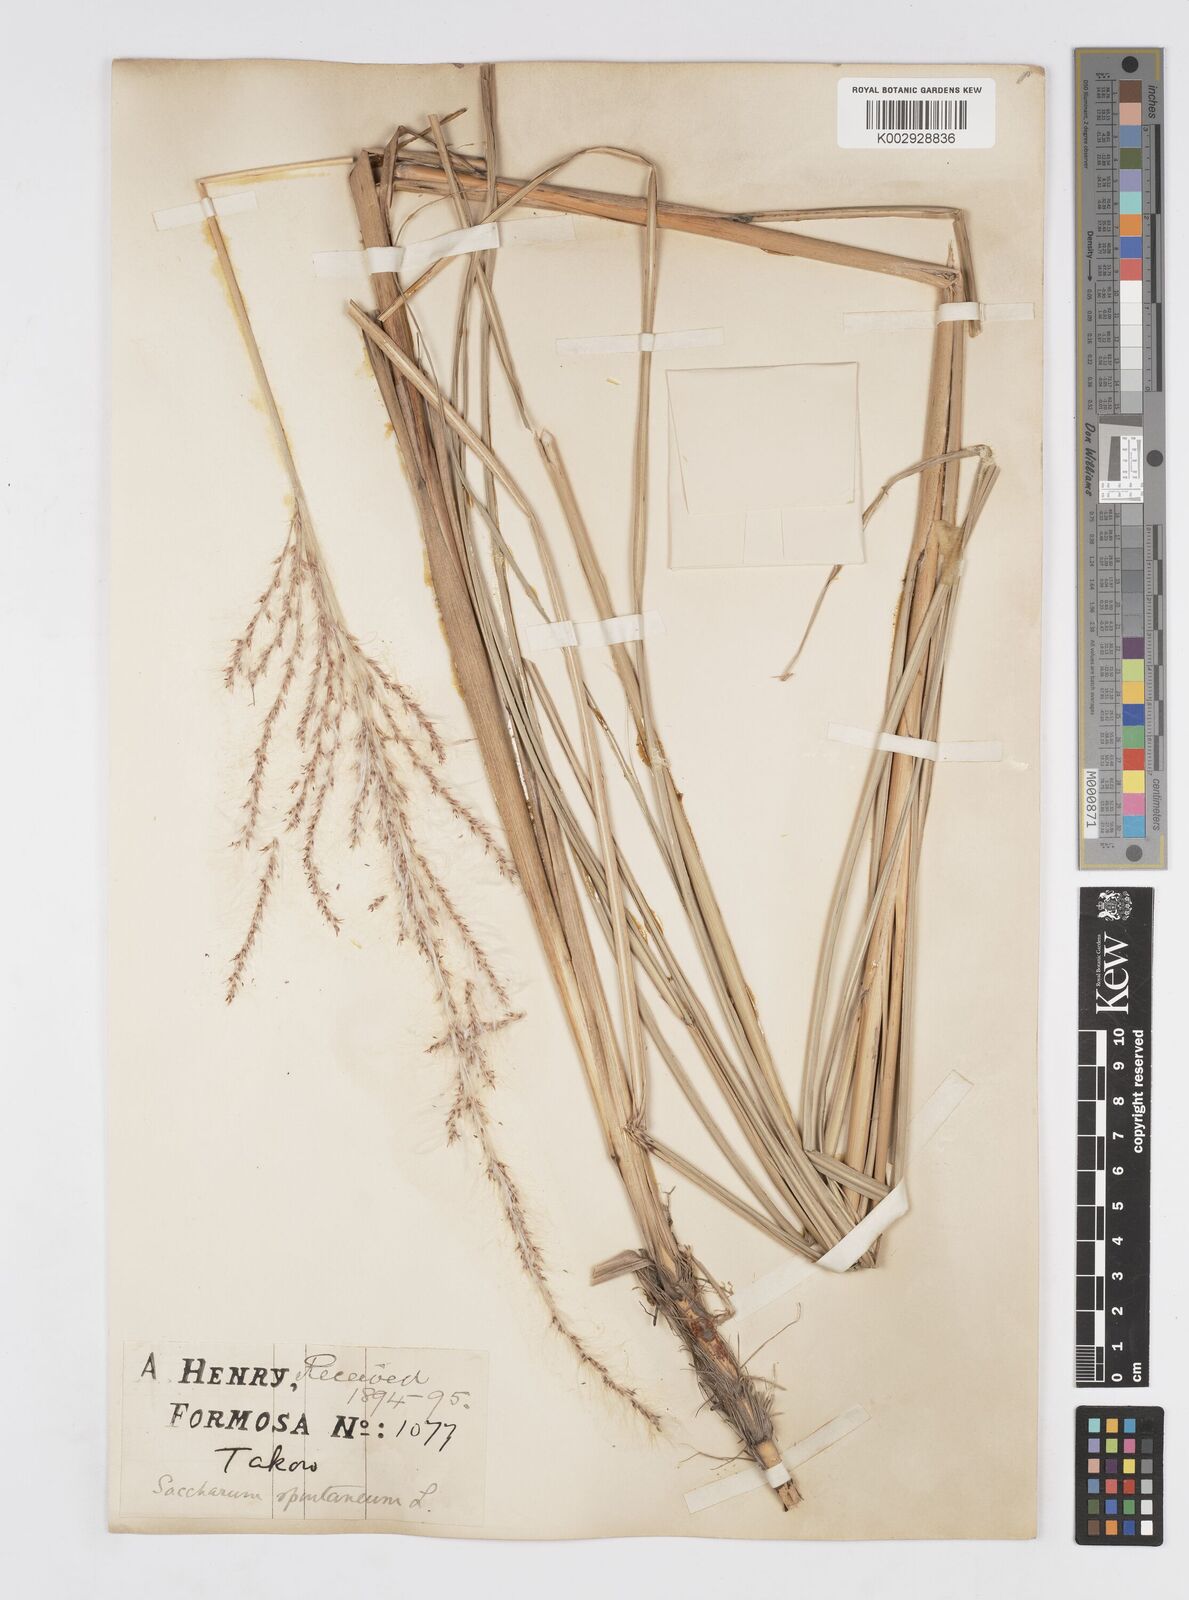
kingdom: Plantae
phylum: Tracheophyta
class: Liliopsida
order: Poales
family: Poaceae
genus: Saccharum
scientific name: Saccharum spontaneum
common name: Wild sugarcane
